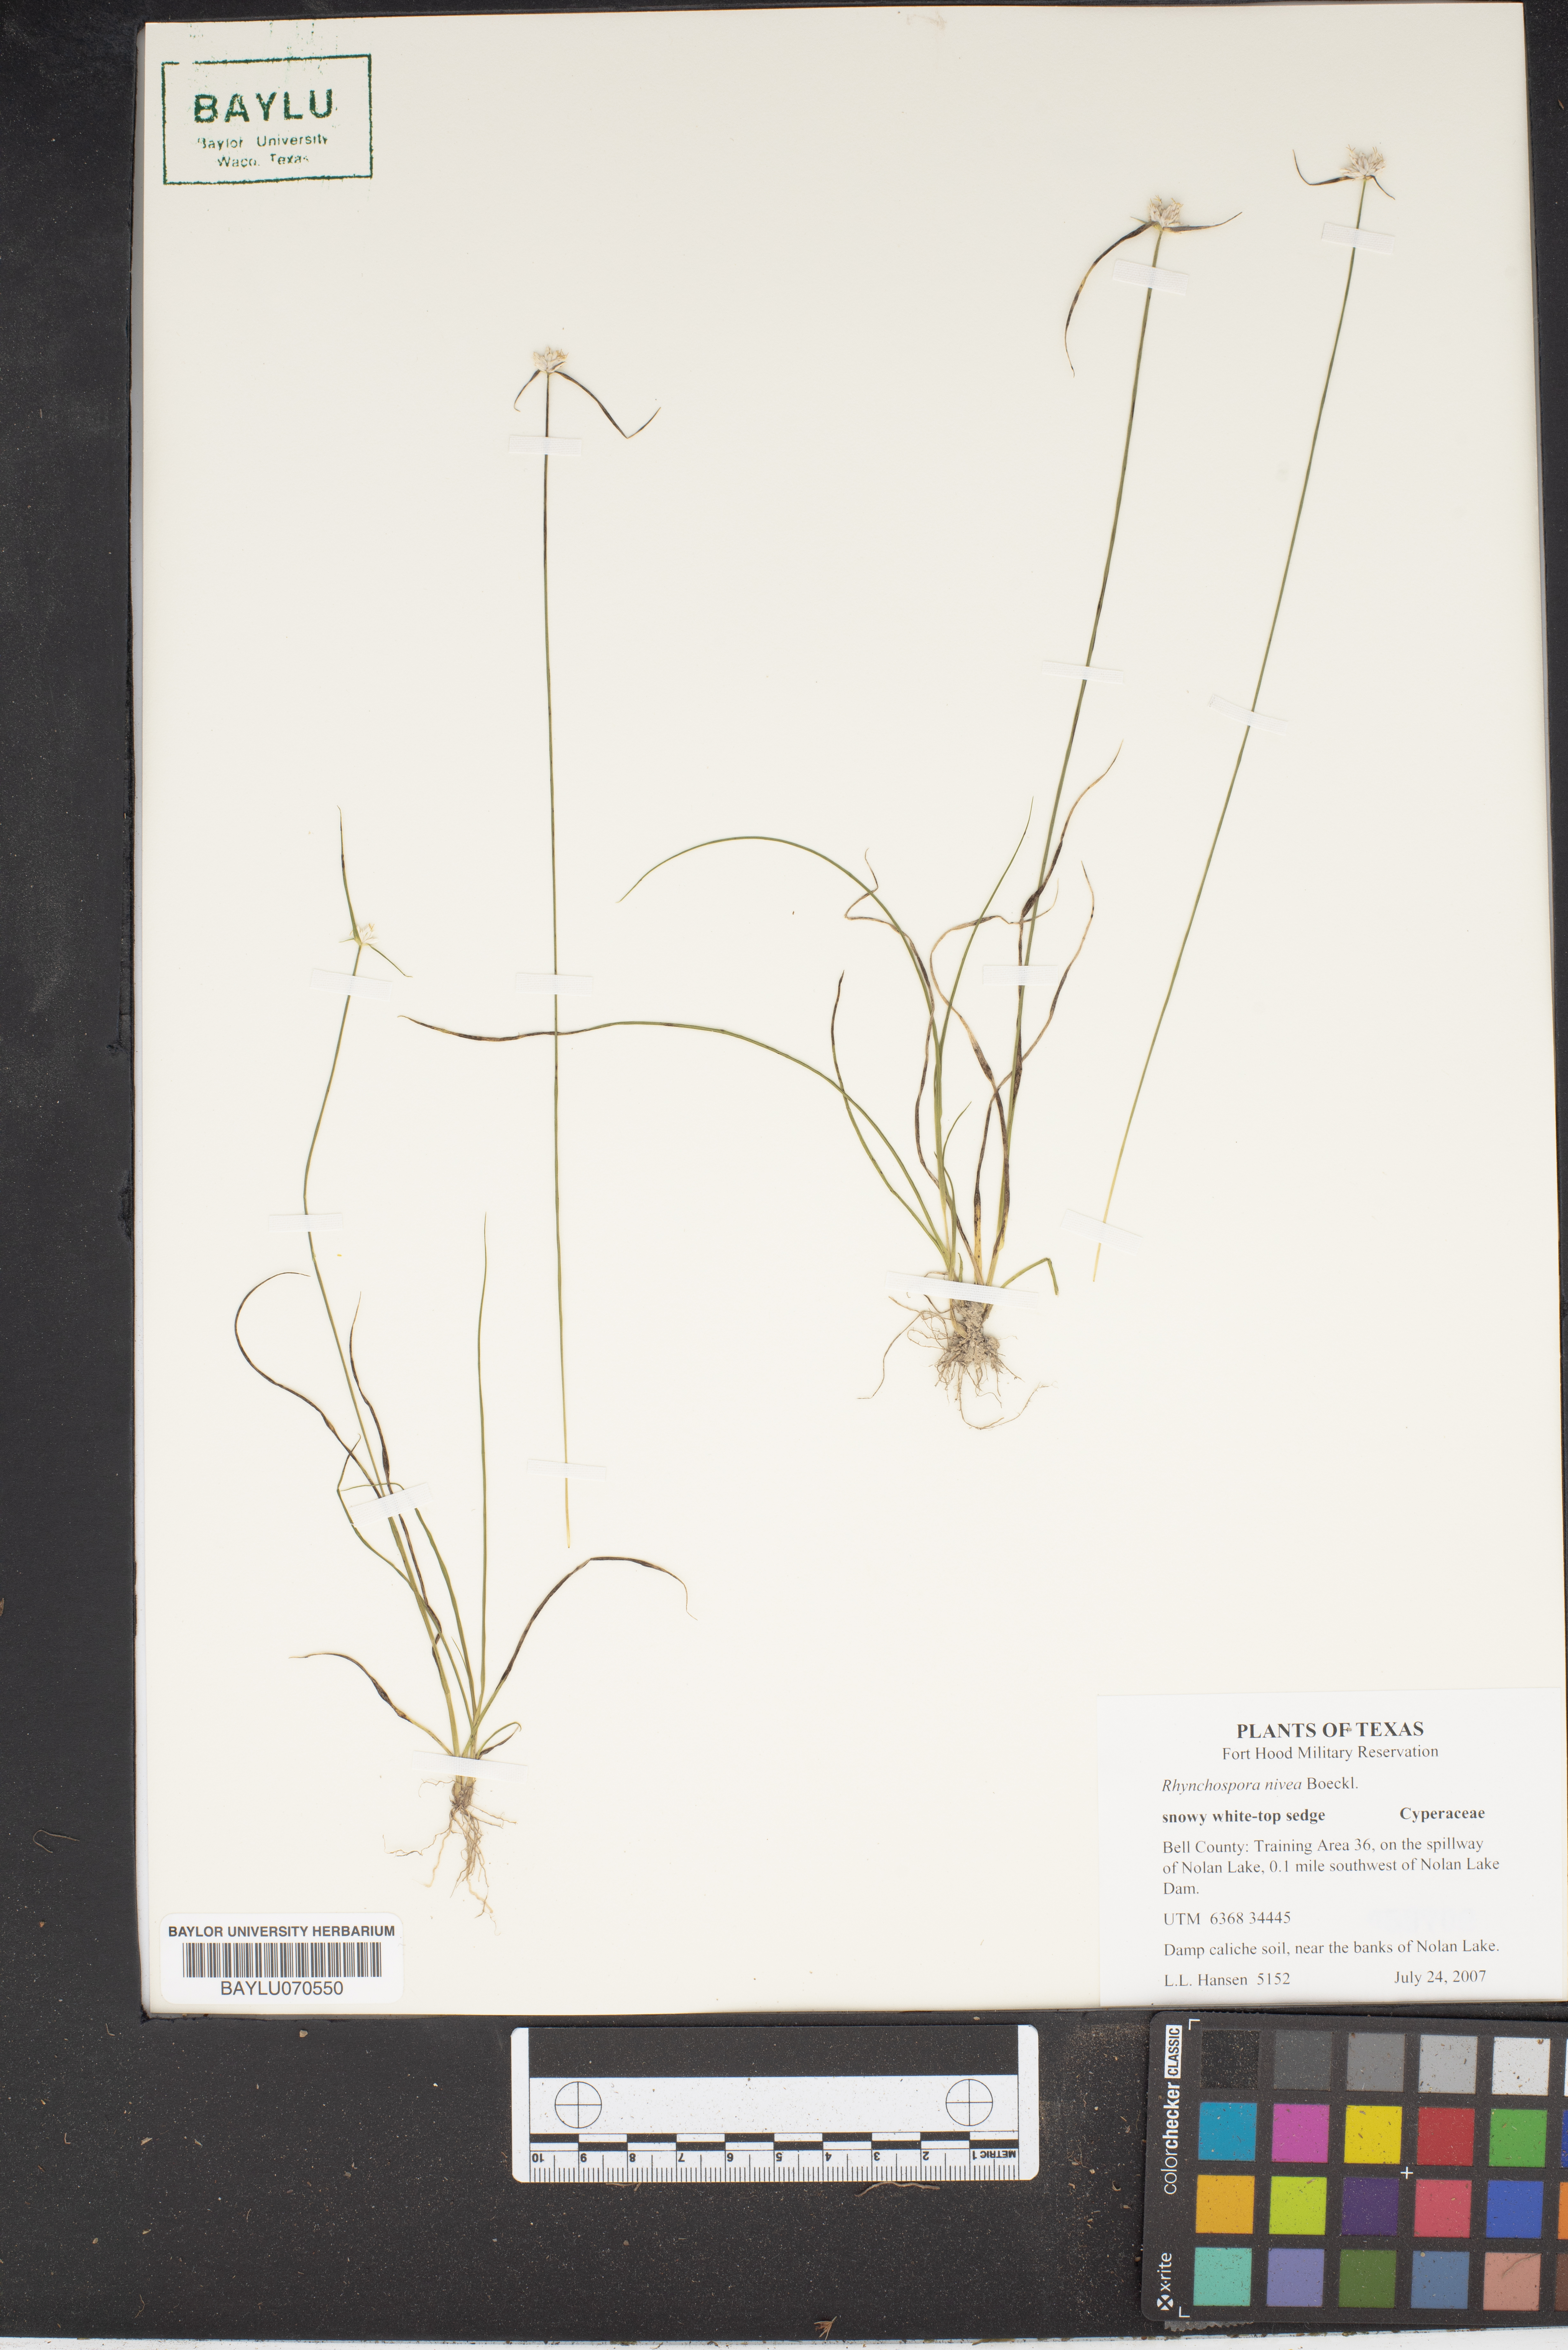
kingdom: Plantae
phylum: Tracheophyta
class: Liliopsida
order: Poales
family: Cyperaceae
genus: Rhynchospora
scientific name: Rhynchospora nivea
